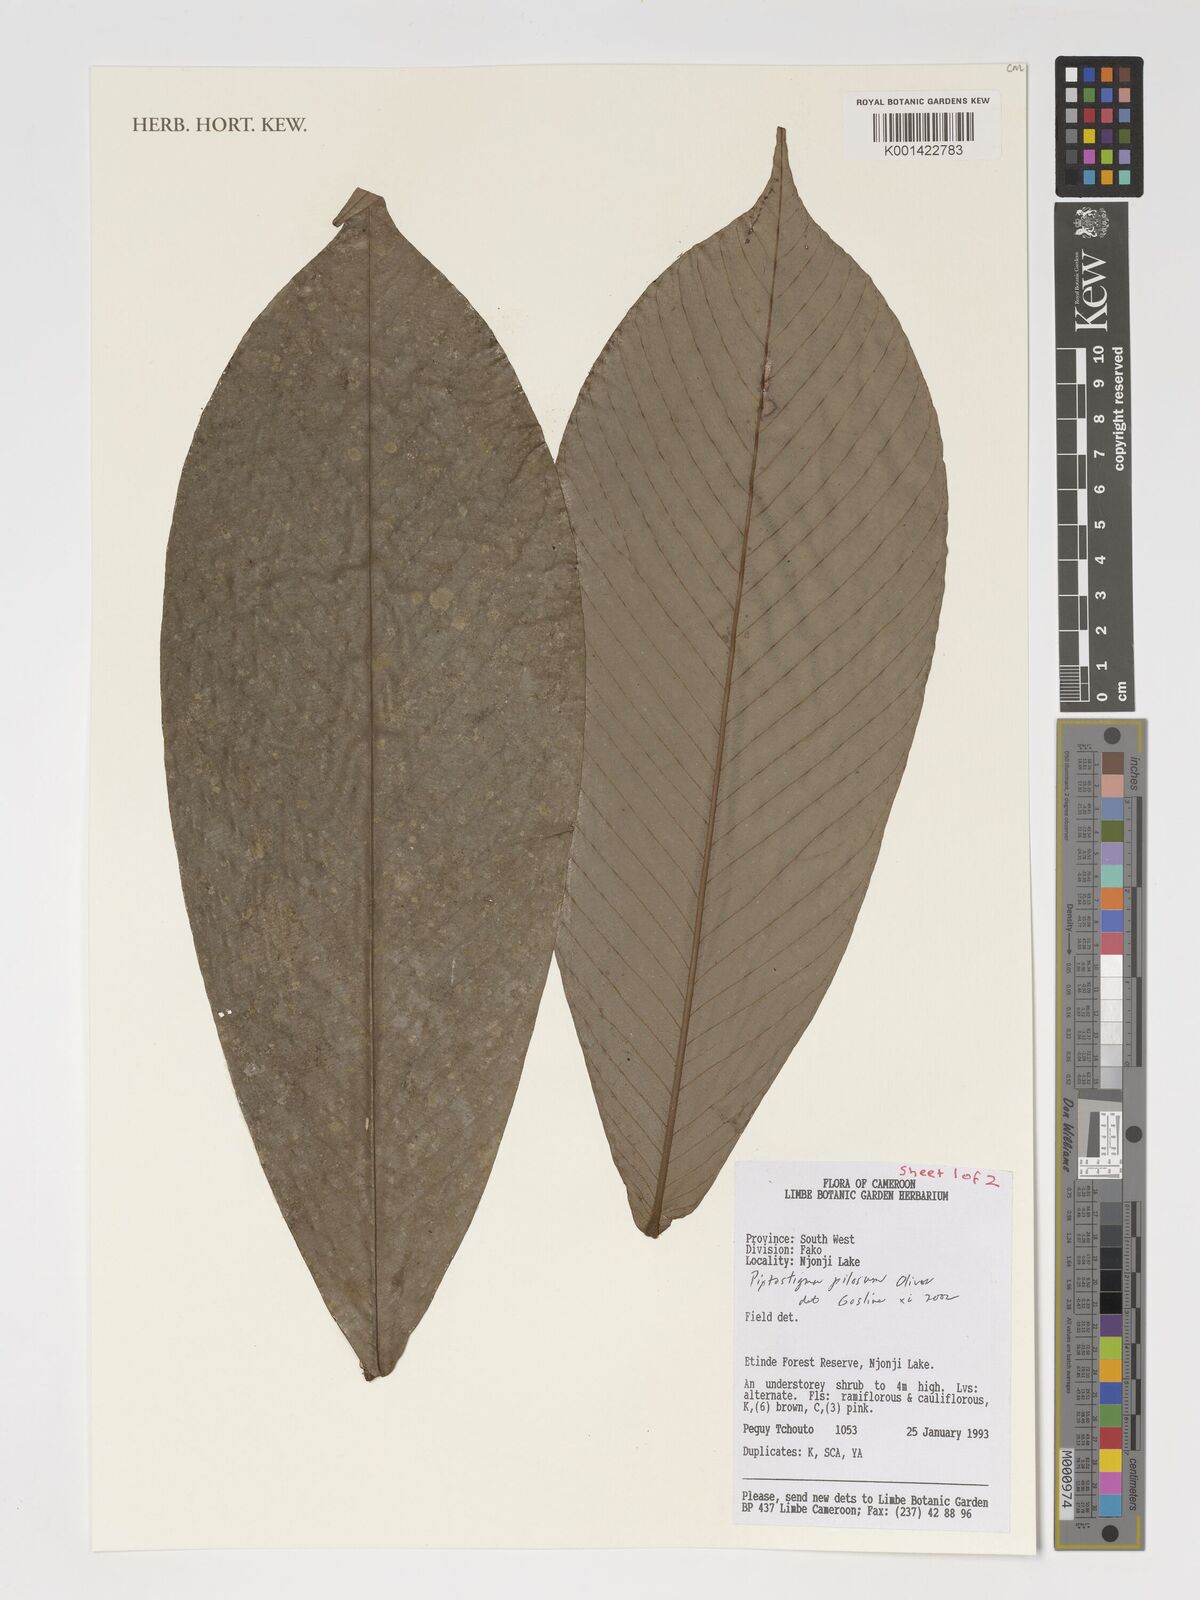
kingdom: Plantae
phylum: Tracheophyta
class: Magnoliopsida
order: Magnoliales
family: Annonaceae
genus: Piptostigma
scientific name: Piptostigma pilosum
